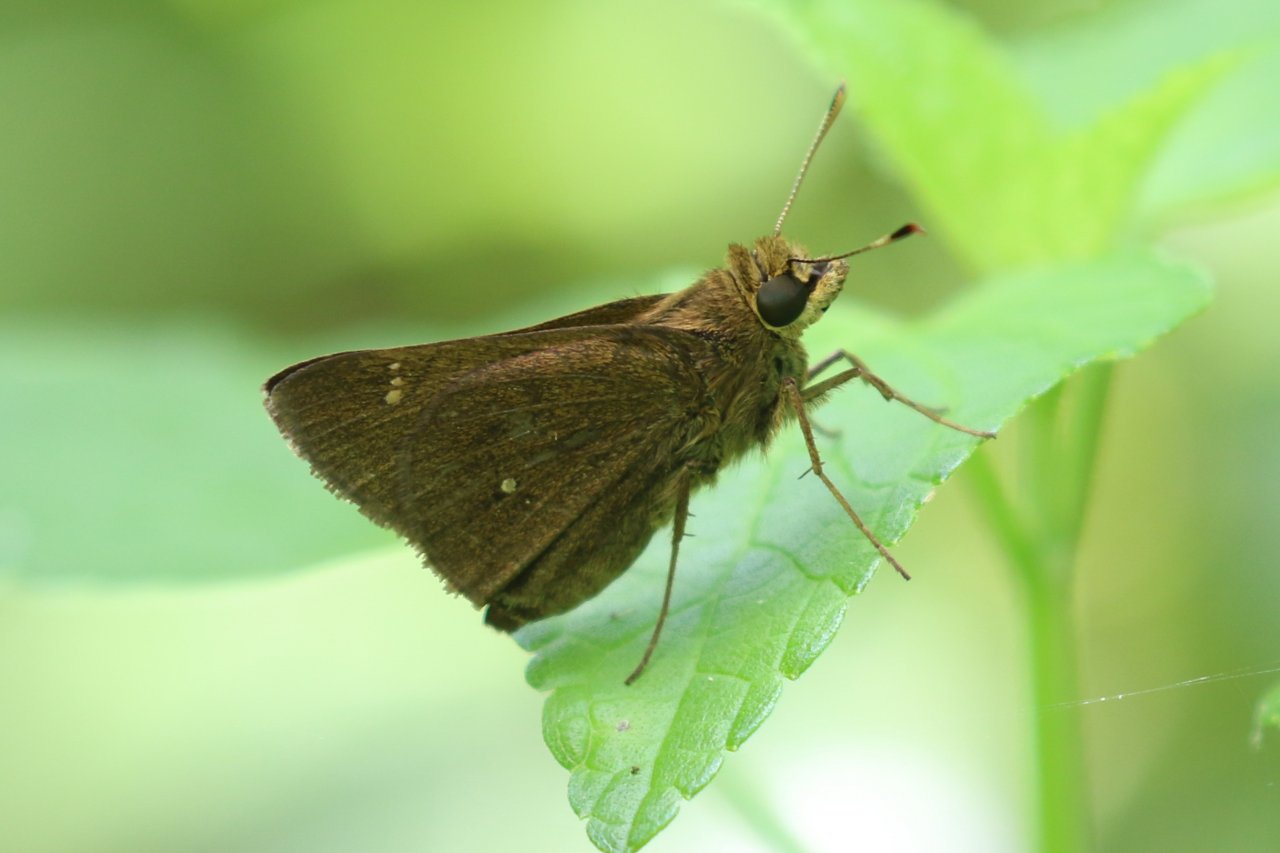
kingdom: Animalia
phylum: Arthropoda
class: Insecta
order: Lepidoptera
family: Hesperiidae
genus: Decinea
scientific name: Decinea percosius
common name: Double-dotted Skipper
